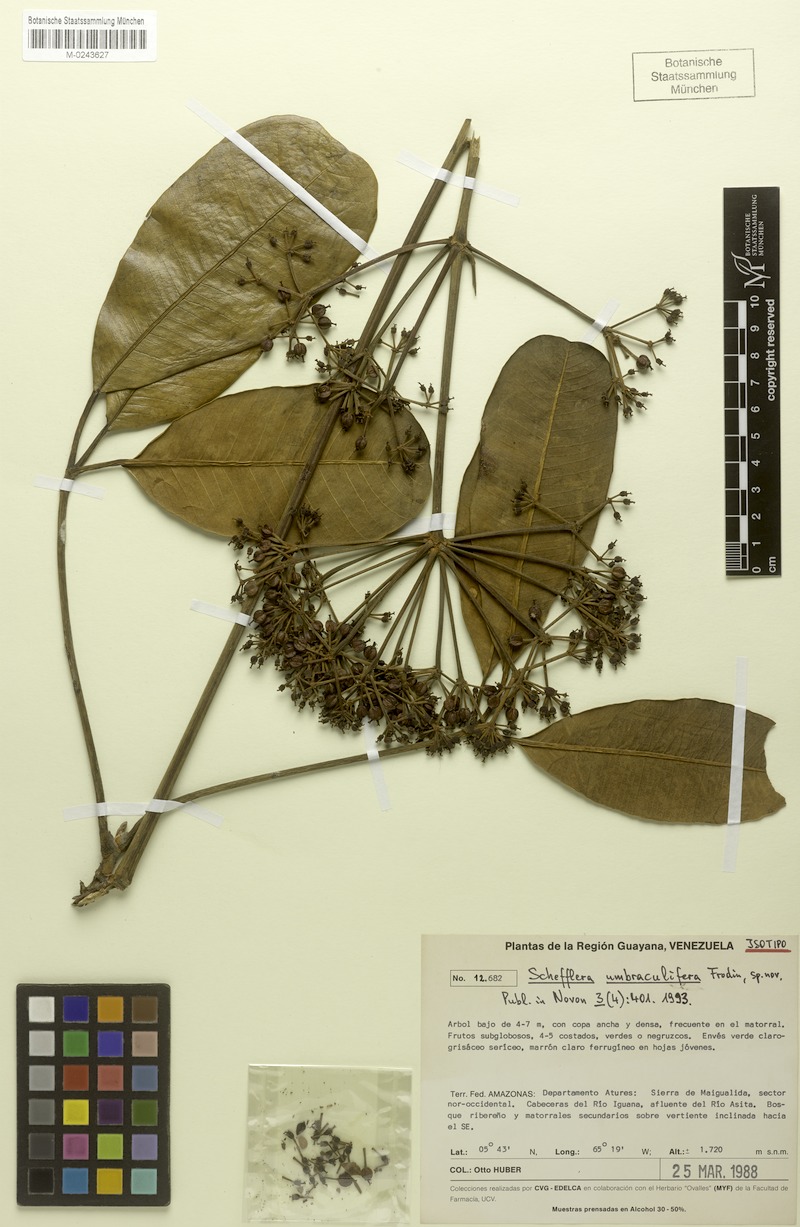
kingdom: Plantae
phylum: Tracheophyta
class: Magnoliopsida
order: Apiales
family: Araliaceae
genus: Crepinella
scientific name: Crepinella umbraculifera
